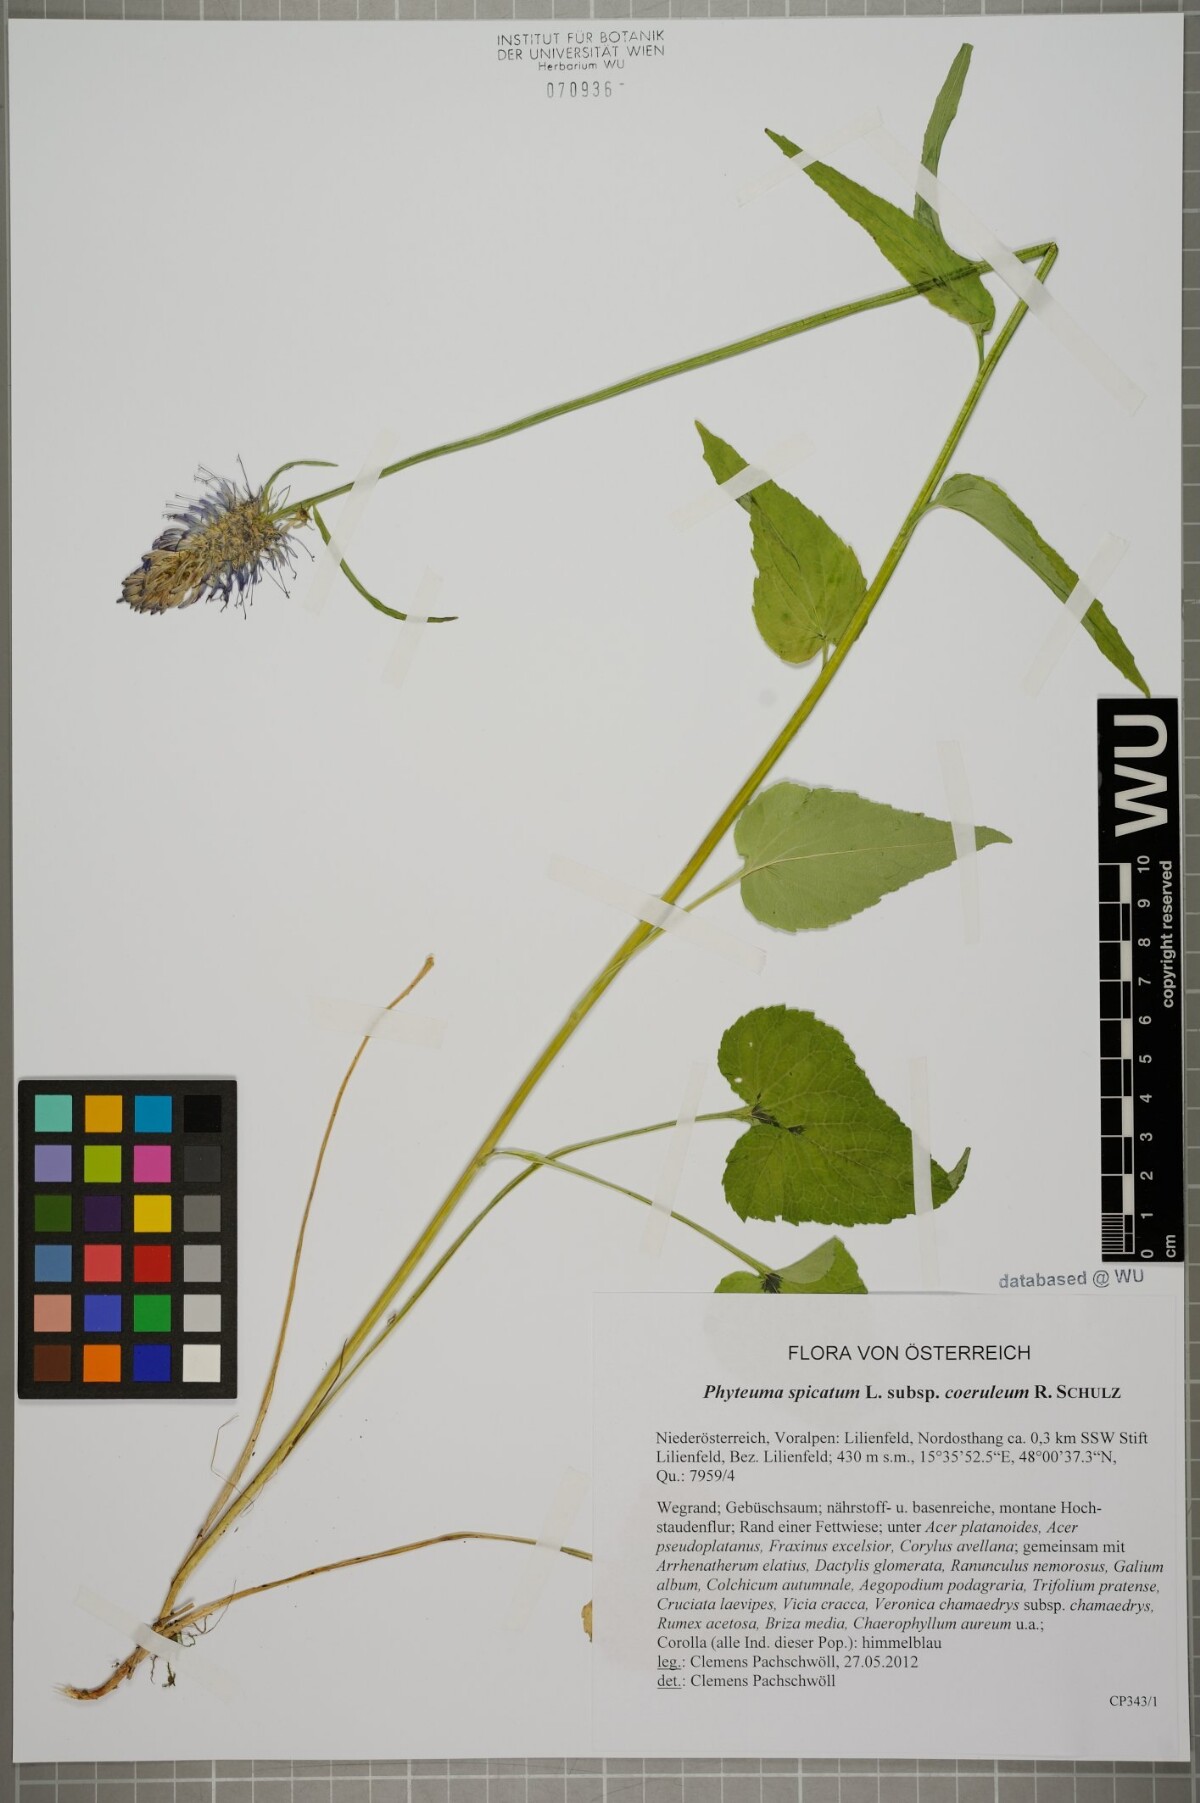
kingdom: Plantae
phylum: Tracheophyta
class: Magnoliopsida
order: Asterales
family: Campanulaceae
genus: Phyteuma
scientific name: Phyteuma spicatum
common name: Spiked rampion
